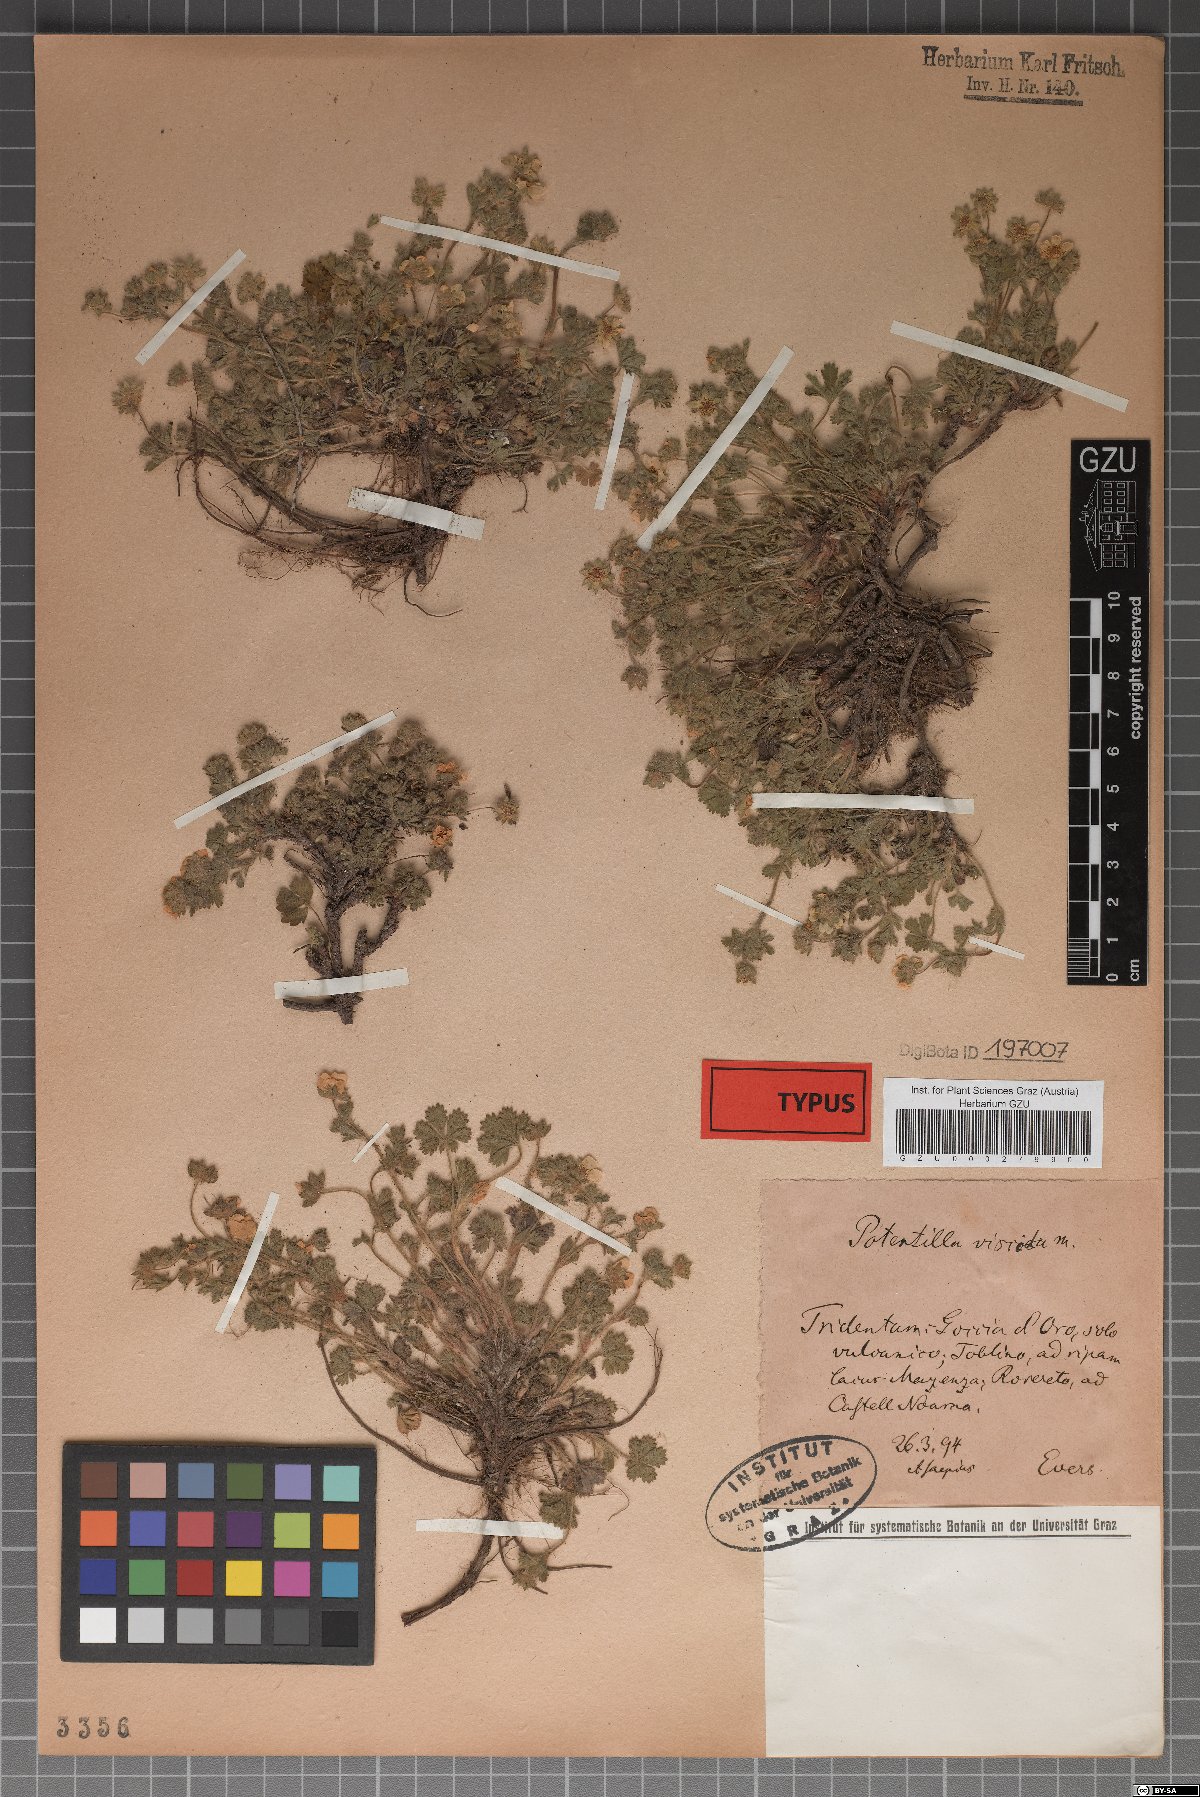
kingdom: Plantae
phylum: Tracheophyta
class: Magnoliopsida
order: Rosales
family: Rosaceae
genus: Potentilla
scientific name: Potentilla pusilla
